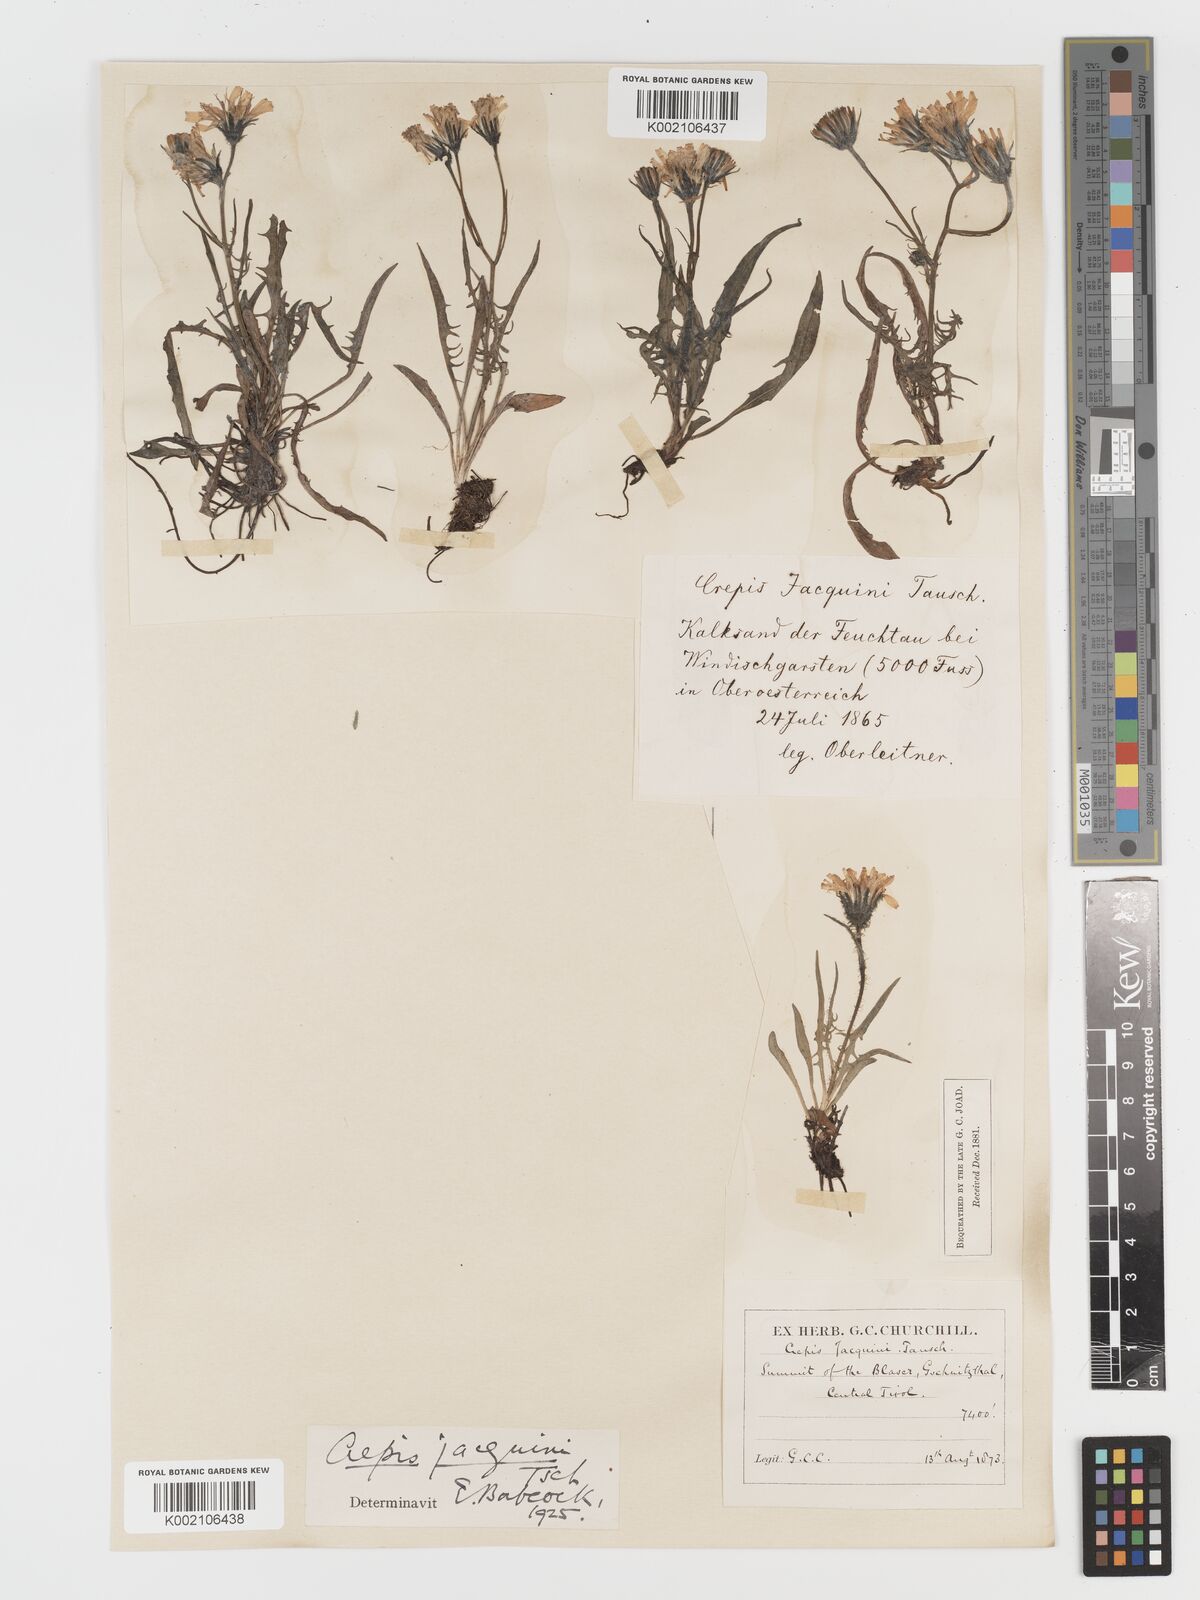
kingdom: Plantae
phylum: Tracheophyta
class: Magnoliopsida
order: Asterales
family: Asteraceae
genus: Crepis
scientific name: Crepis jacquinii
